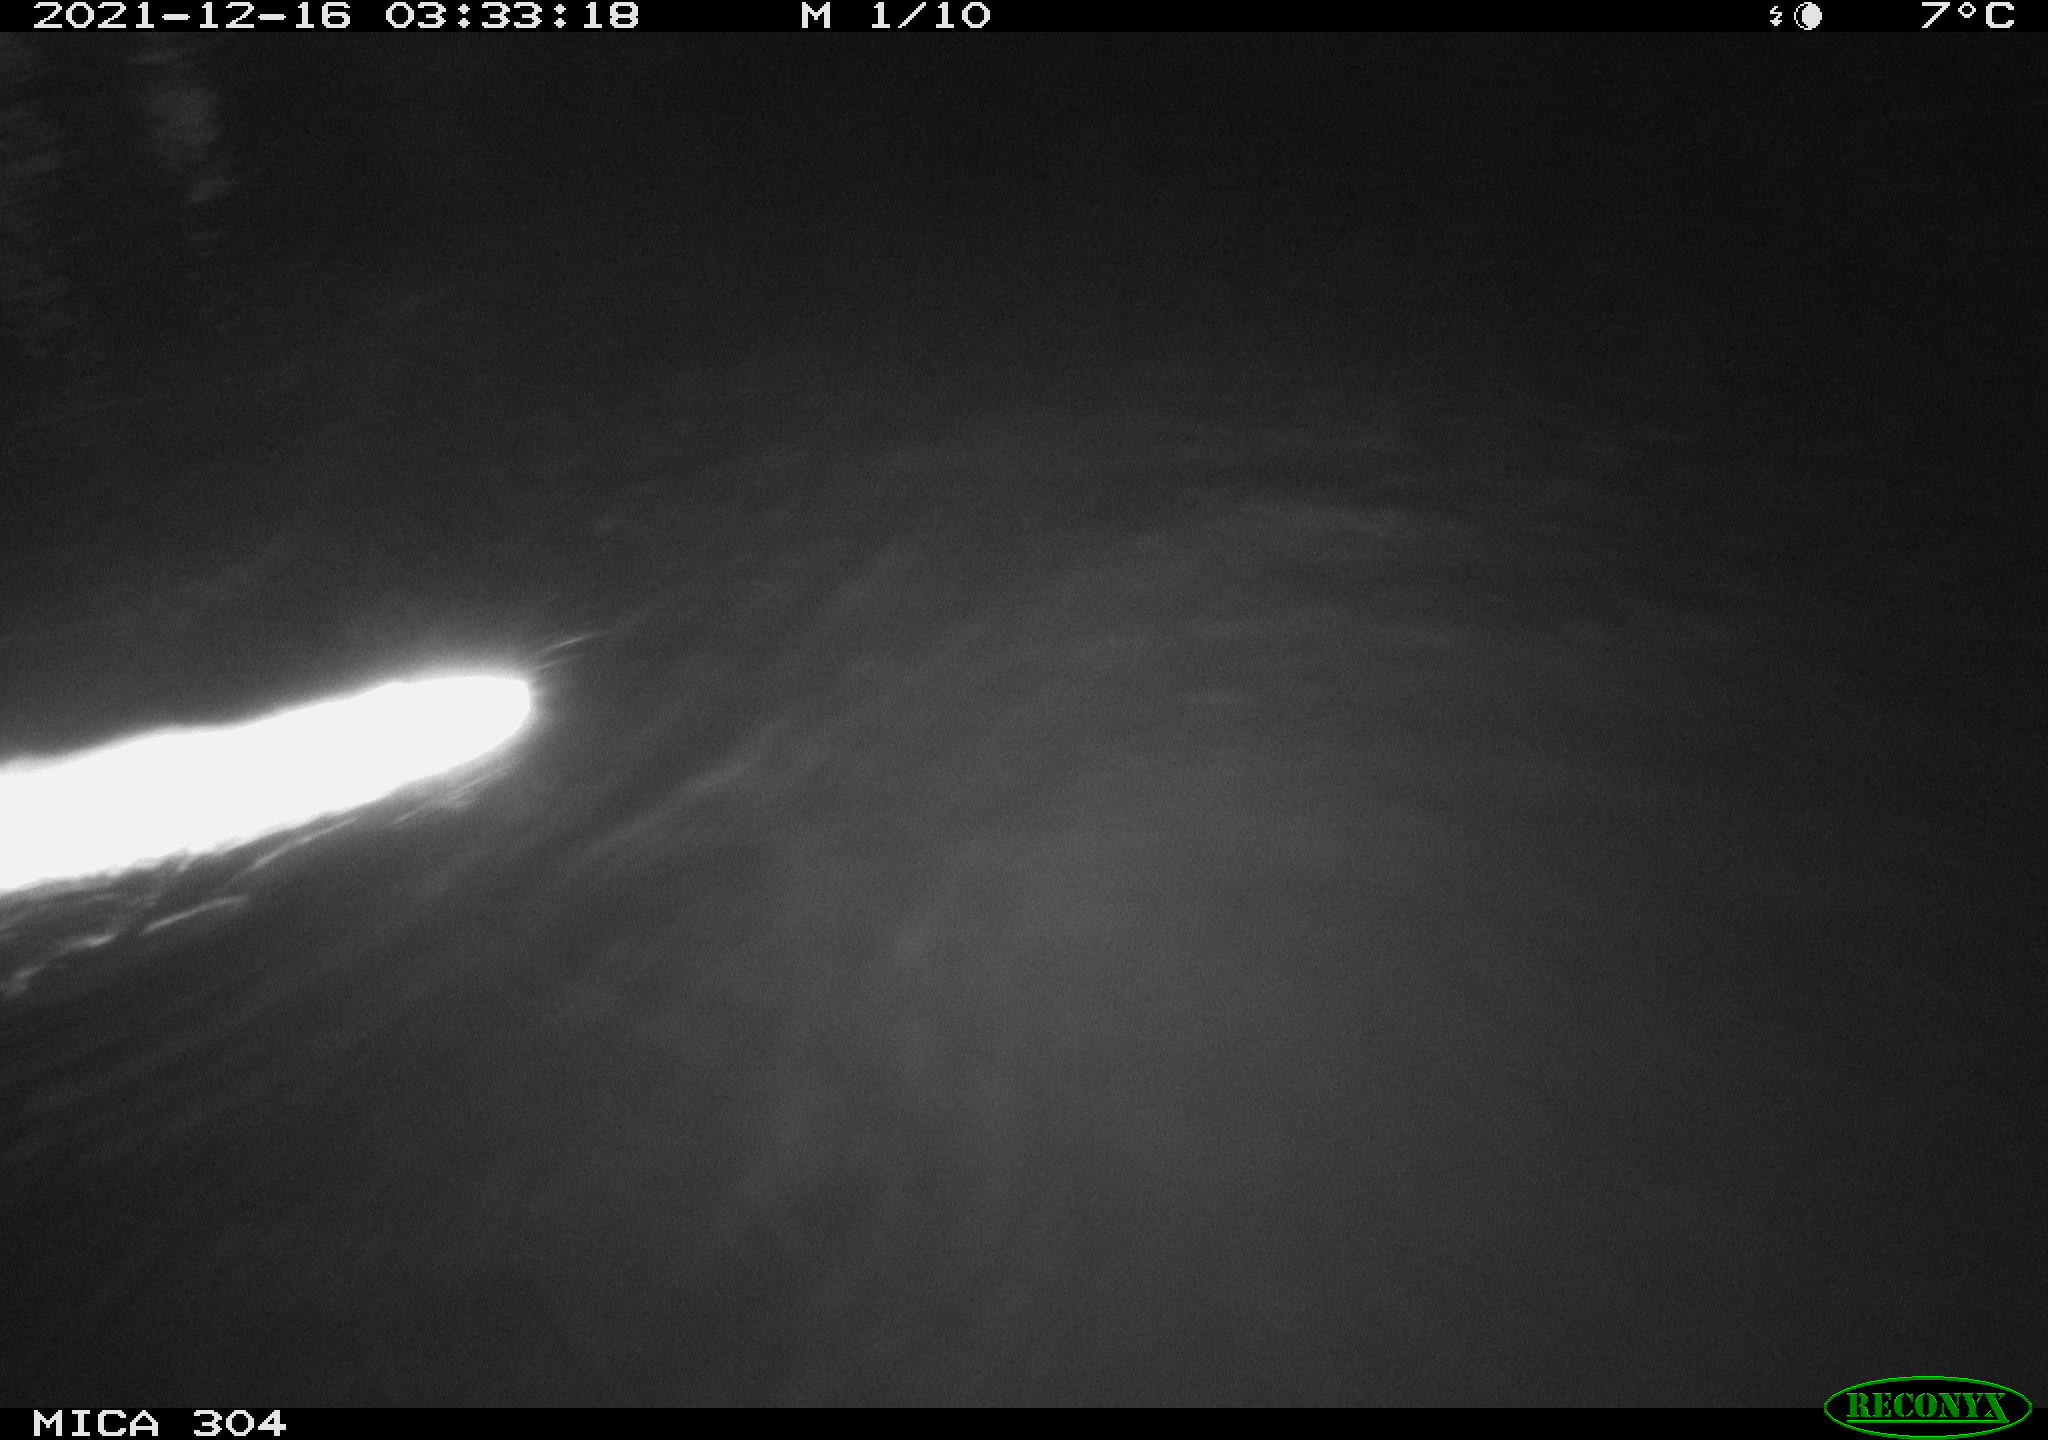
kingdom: Animalia
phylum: Chordata
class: Mammalia
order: Rodentia
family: Muridae
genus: Rattus
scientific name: Rattus norvegicus
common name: Brown rat
